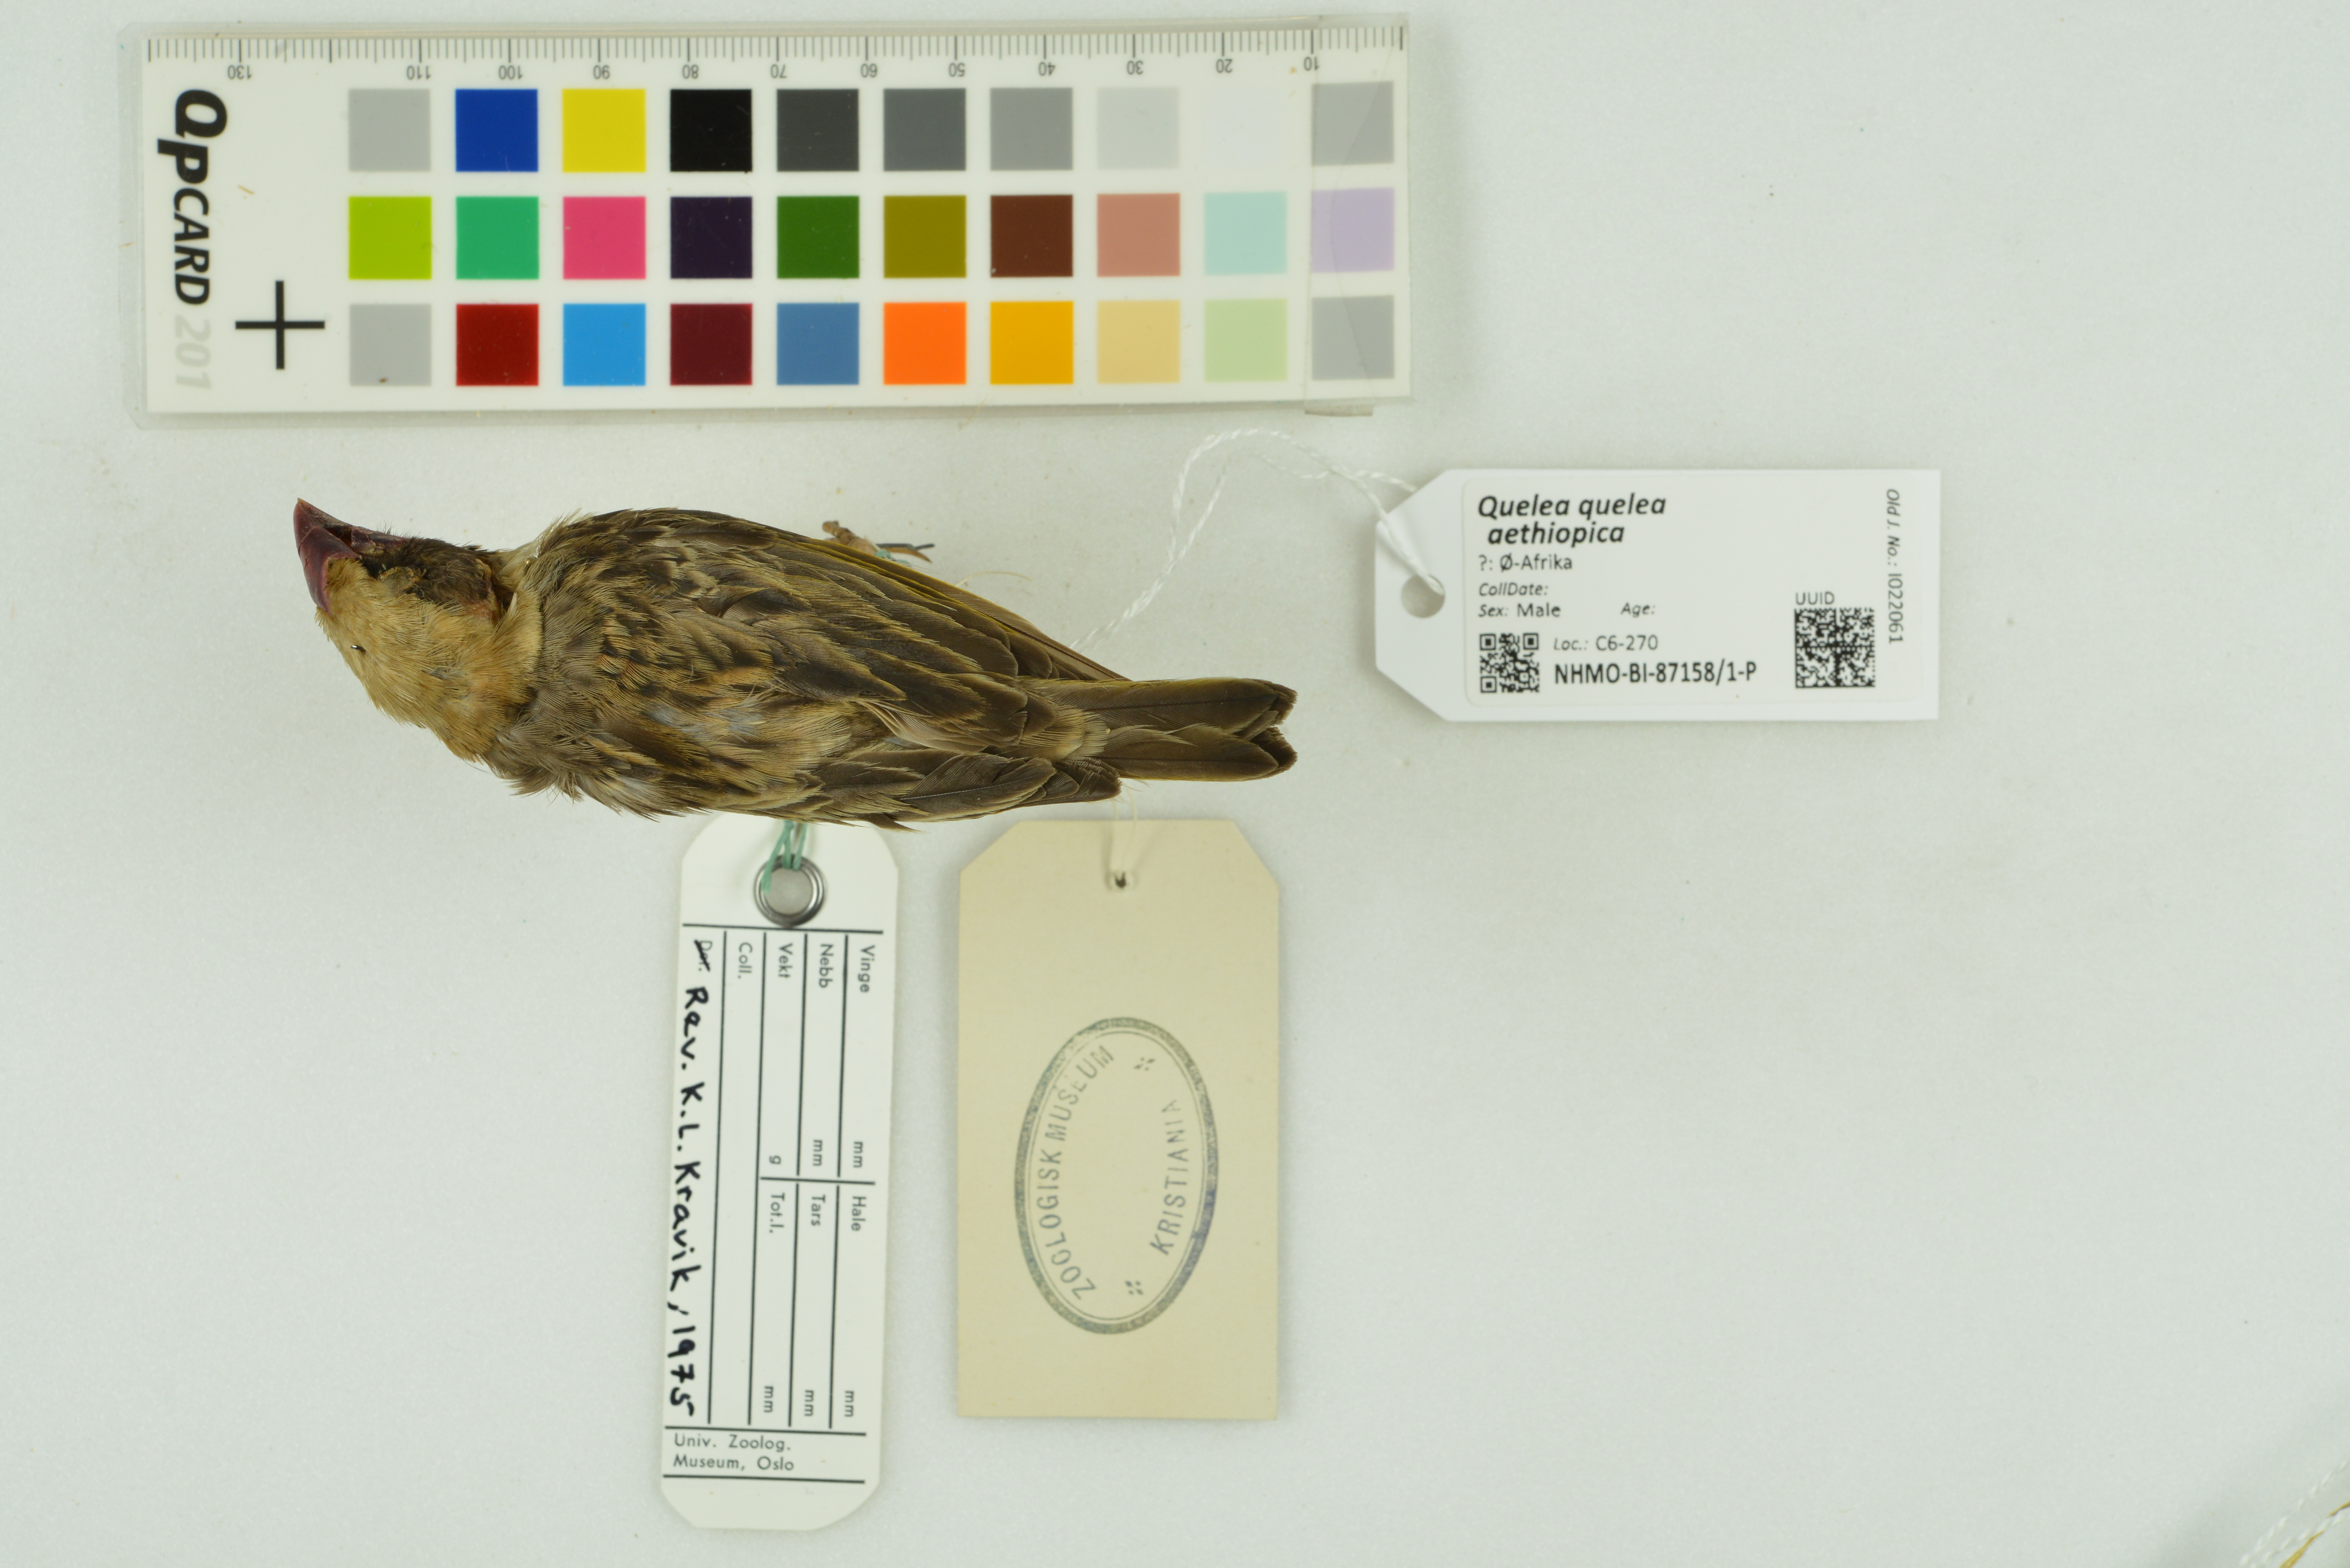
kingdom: Animalia
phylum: Chordata
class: Aves
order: Passeriformes
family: Ploceidae
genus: Quelea
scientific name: Quelea quelea
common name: Red-billed quelea
